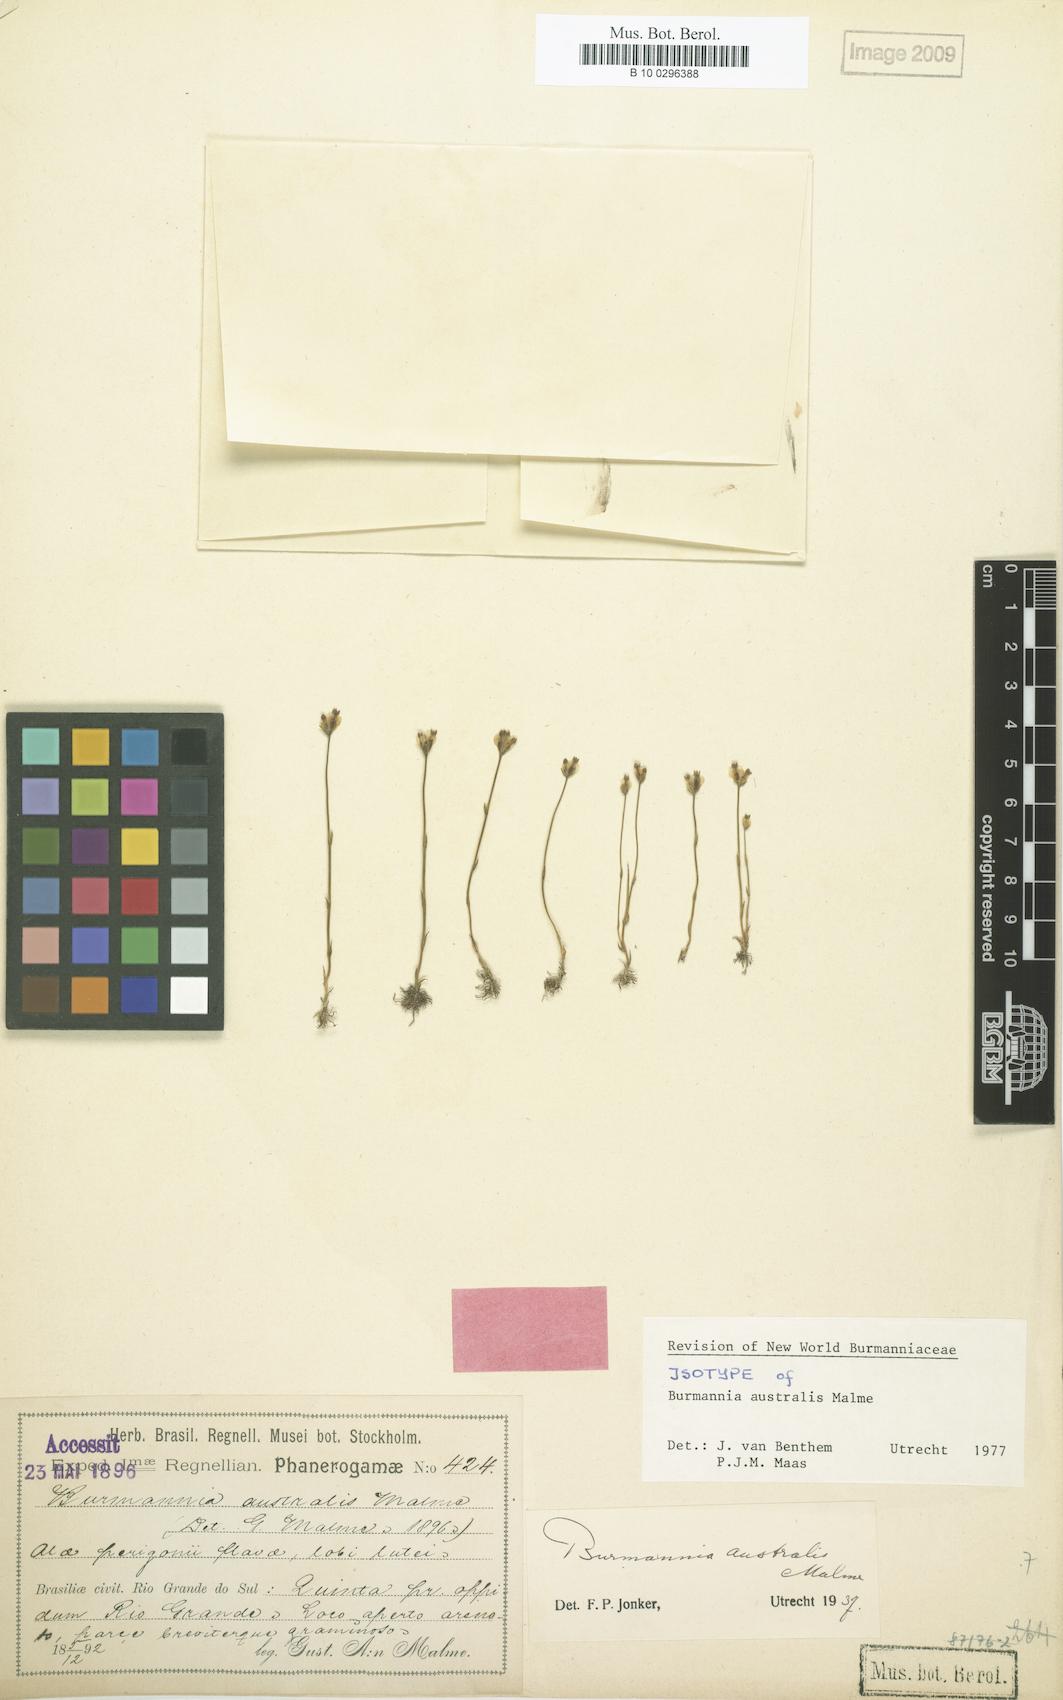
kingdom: Plantae
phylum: Tracheophyta
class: Liliopsida
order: Dioscoreales
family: Burmanniaceae
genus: Burmannia
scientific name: Burmannia australis
